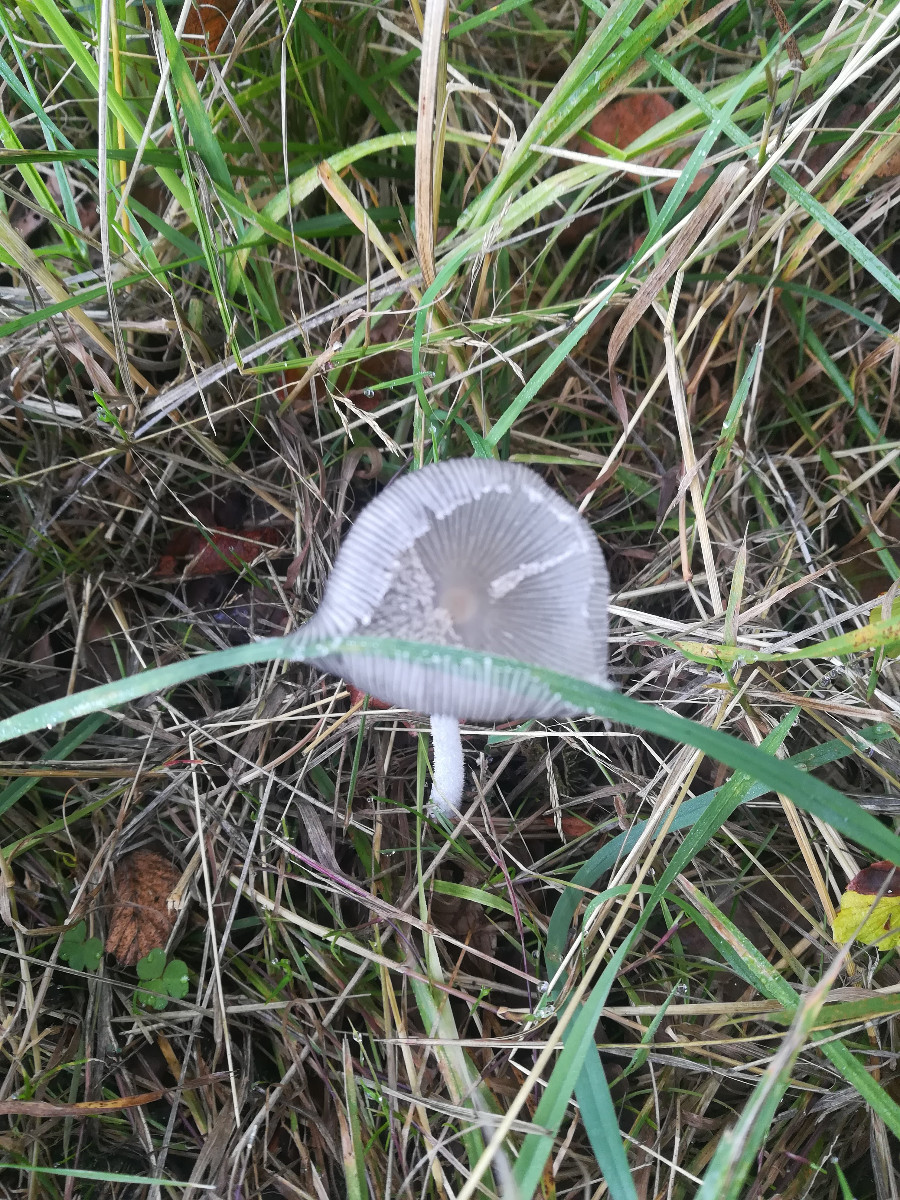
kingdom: Fungi
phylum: Basidiomycota
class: Agaricomycetes
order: Agaricales
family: Psathyrellaceae
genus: Coprinopsis
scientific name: Coprinopsis lagopus
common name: dunstokket blækhat
